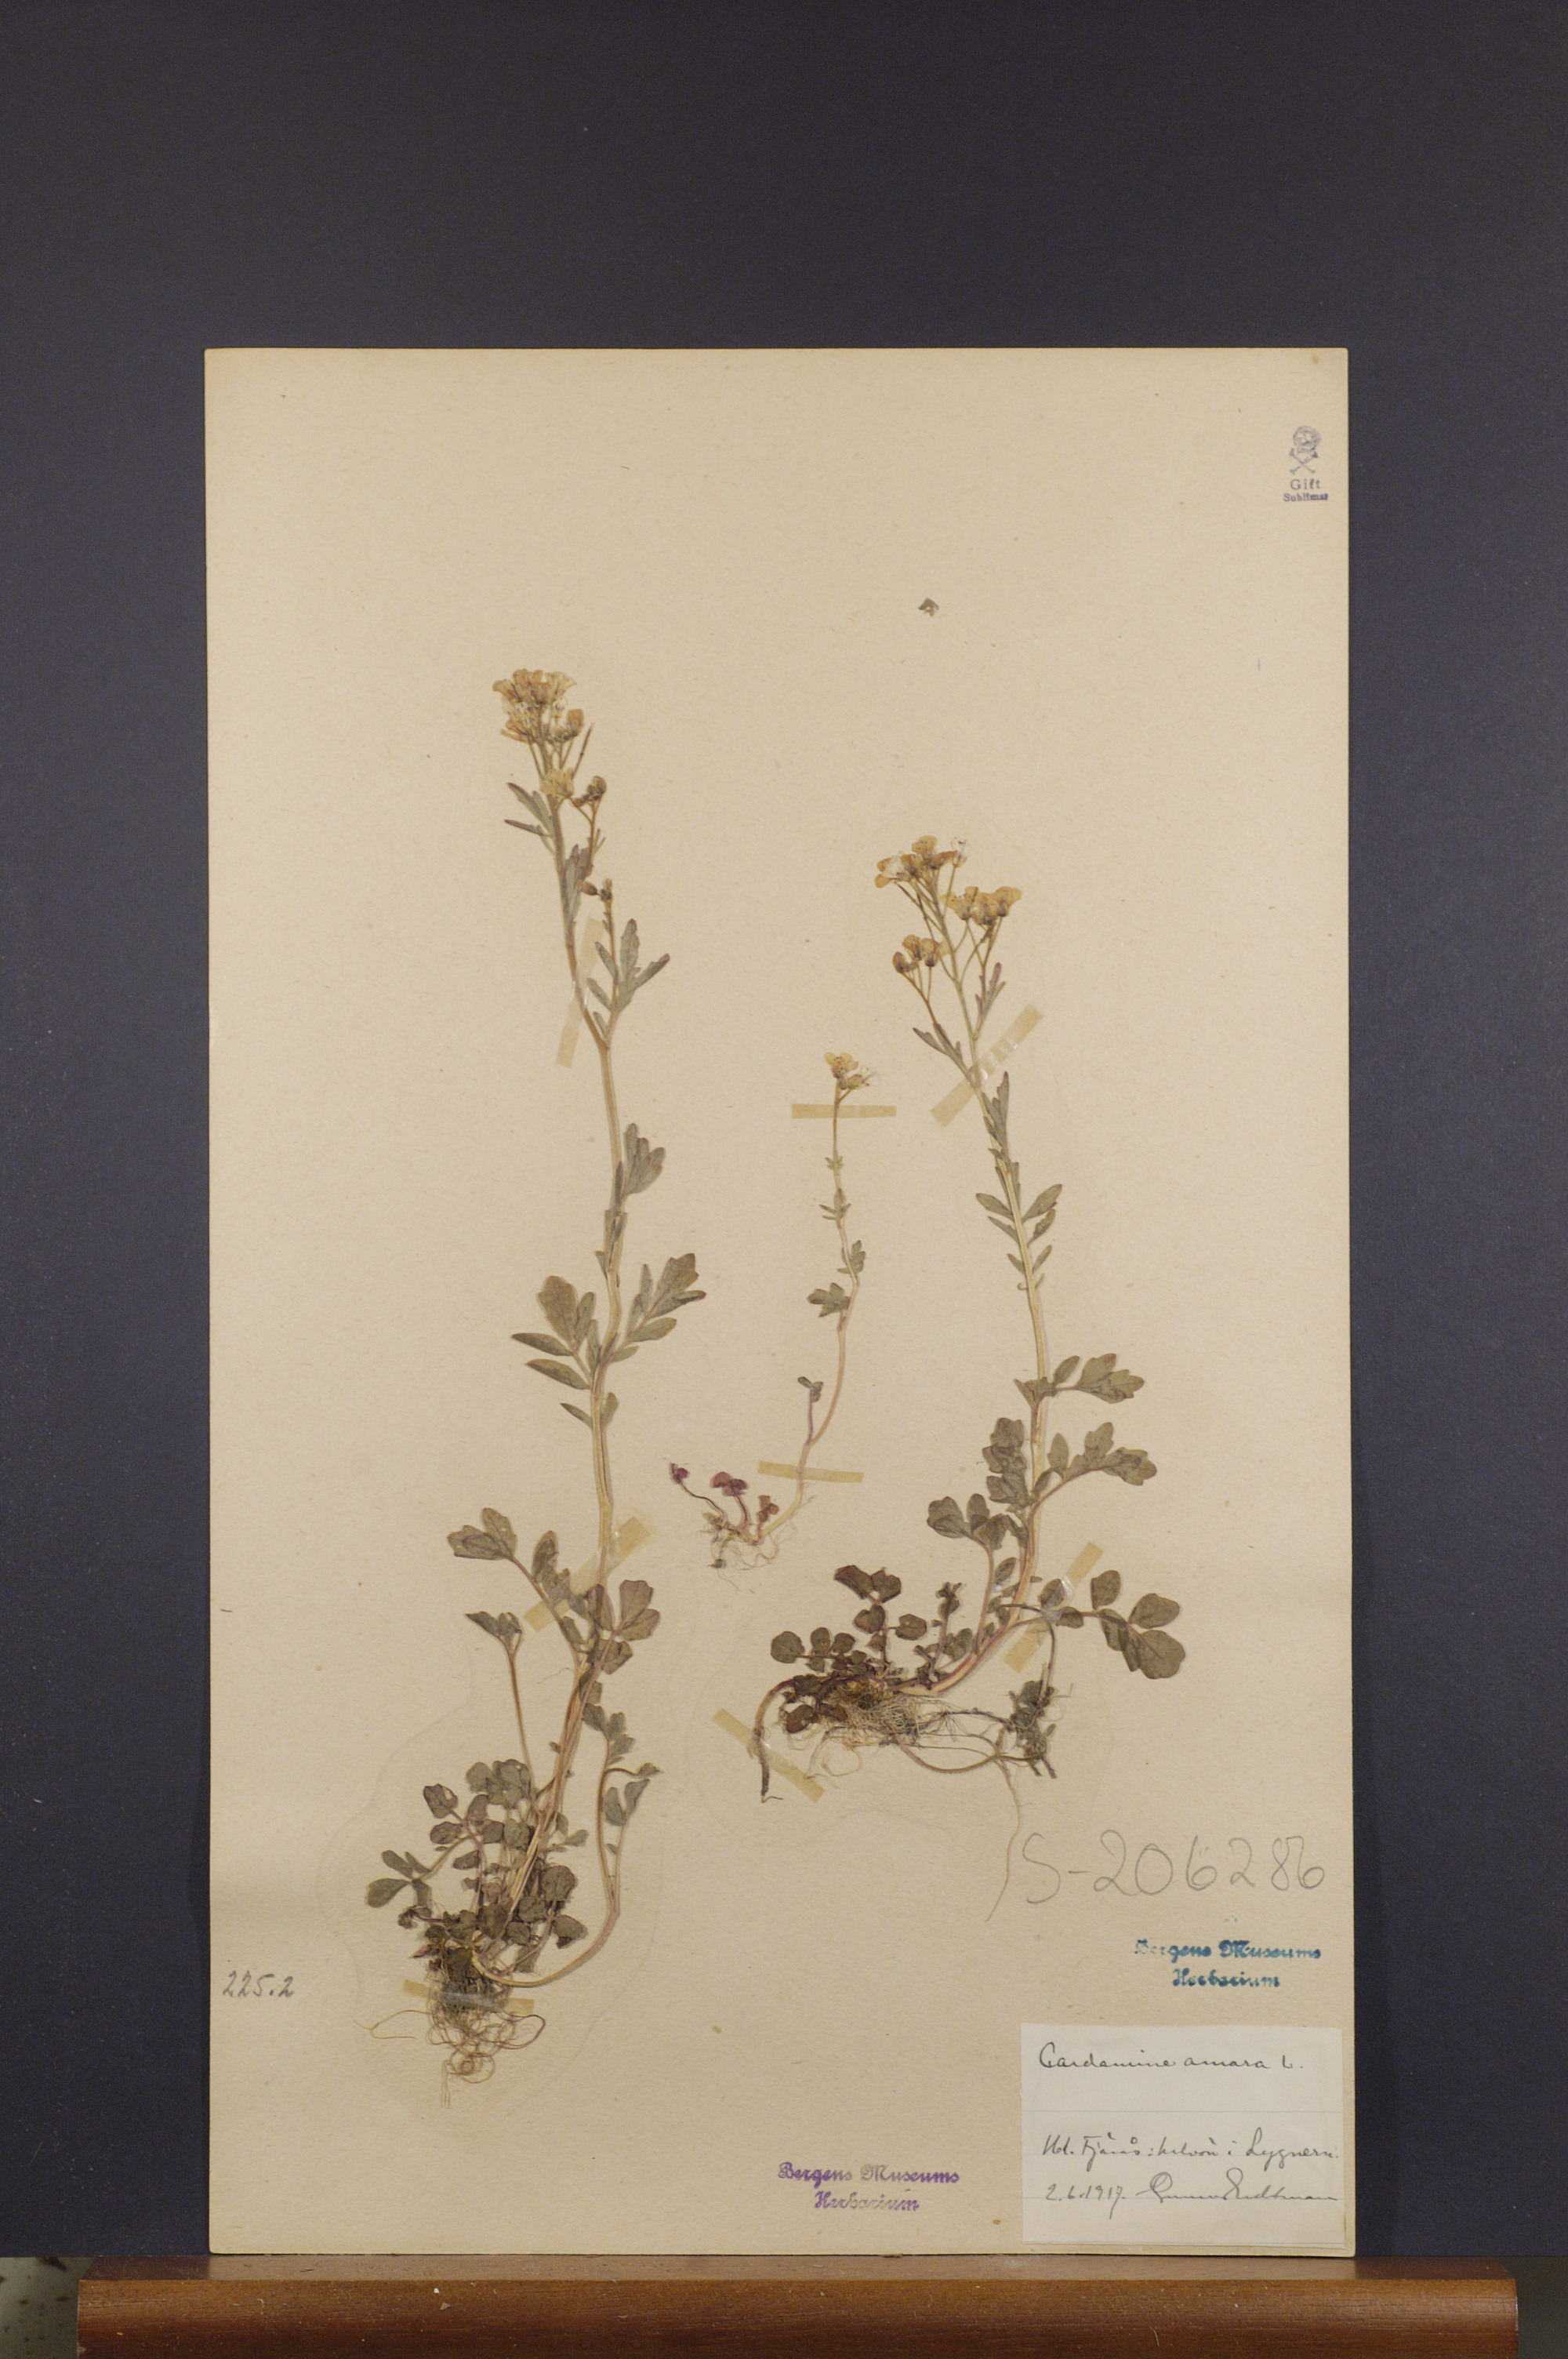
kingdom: Plantae
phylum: Tracheophyta
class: Magnoliopsida
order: Brassicales
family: Brassicaceae
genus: Cardamine
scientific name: Cardamine amara
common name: Large bitter-cress
